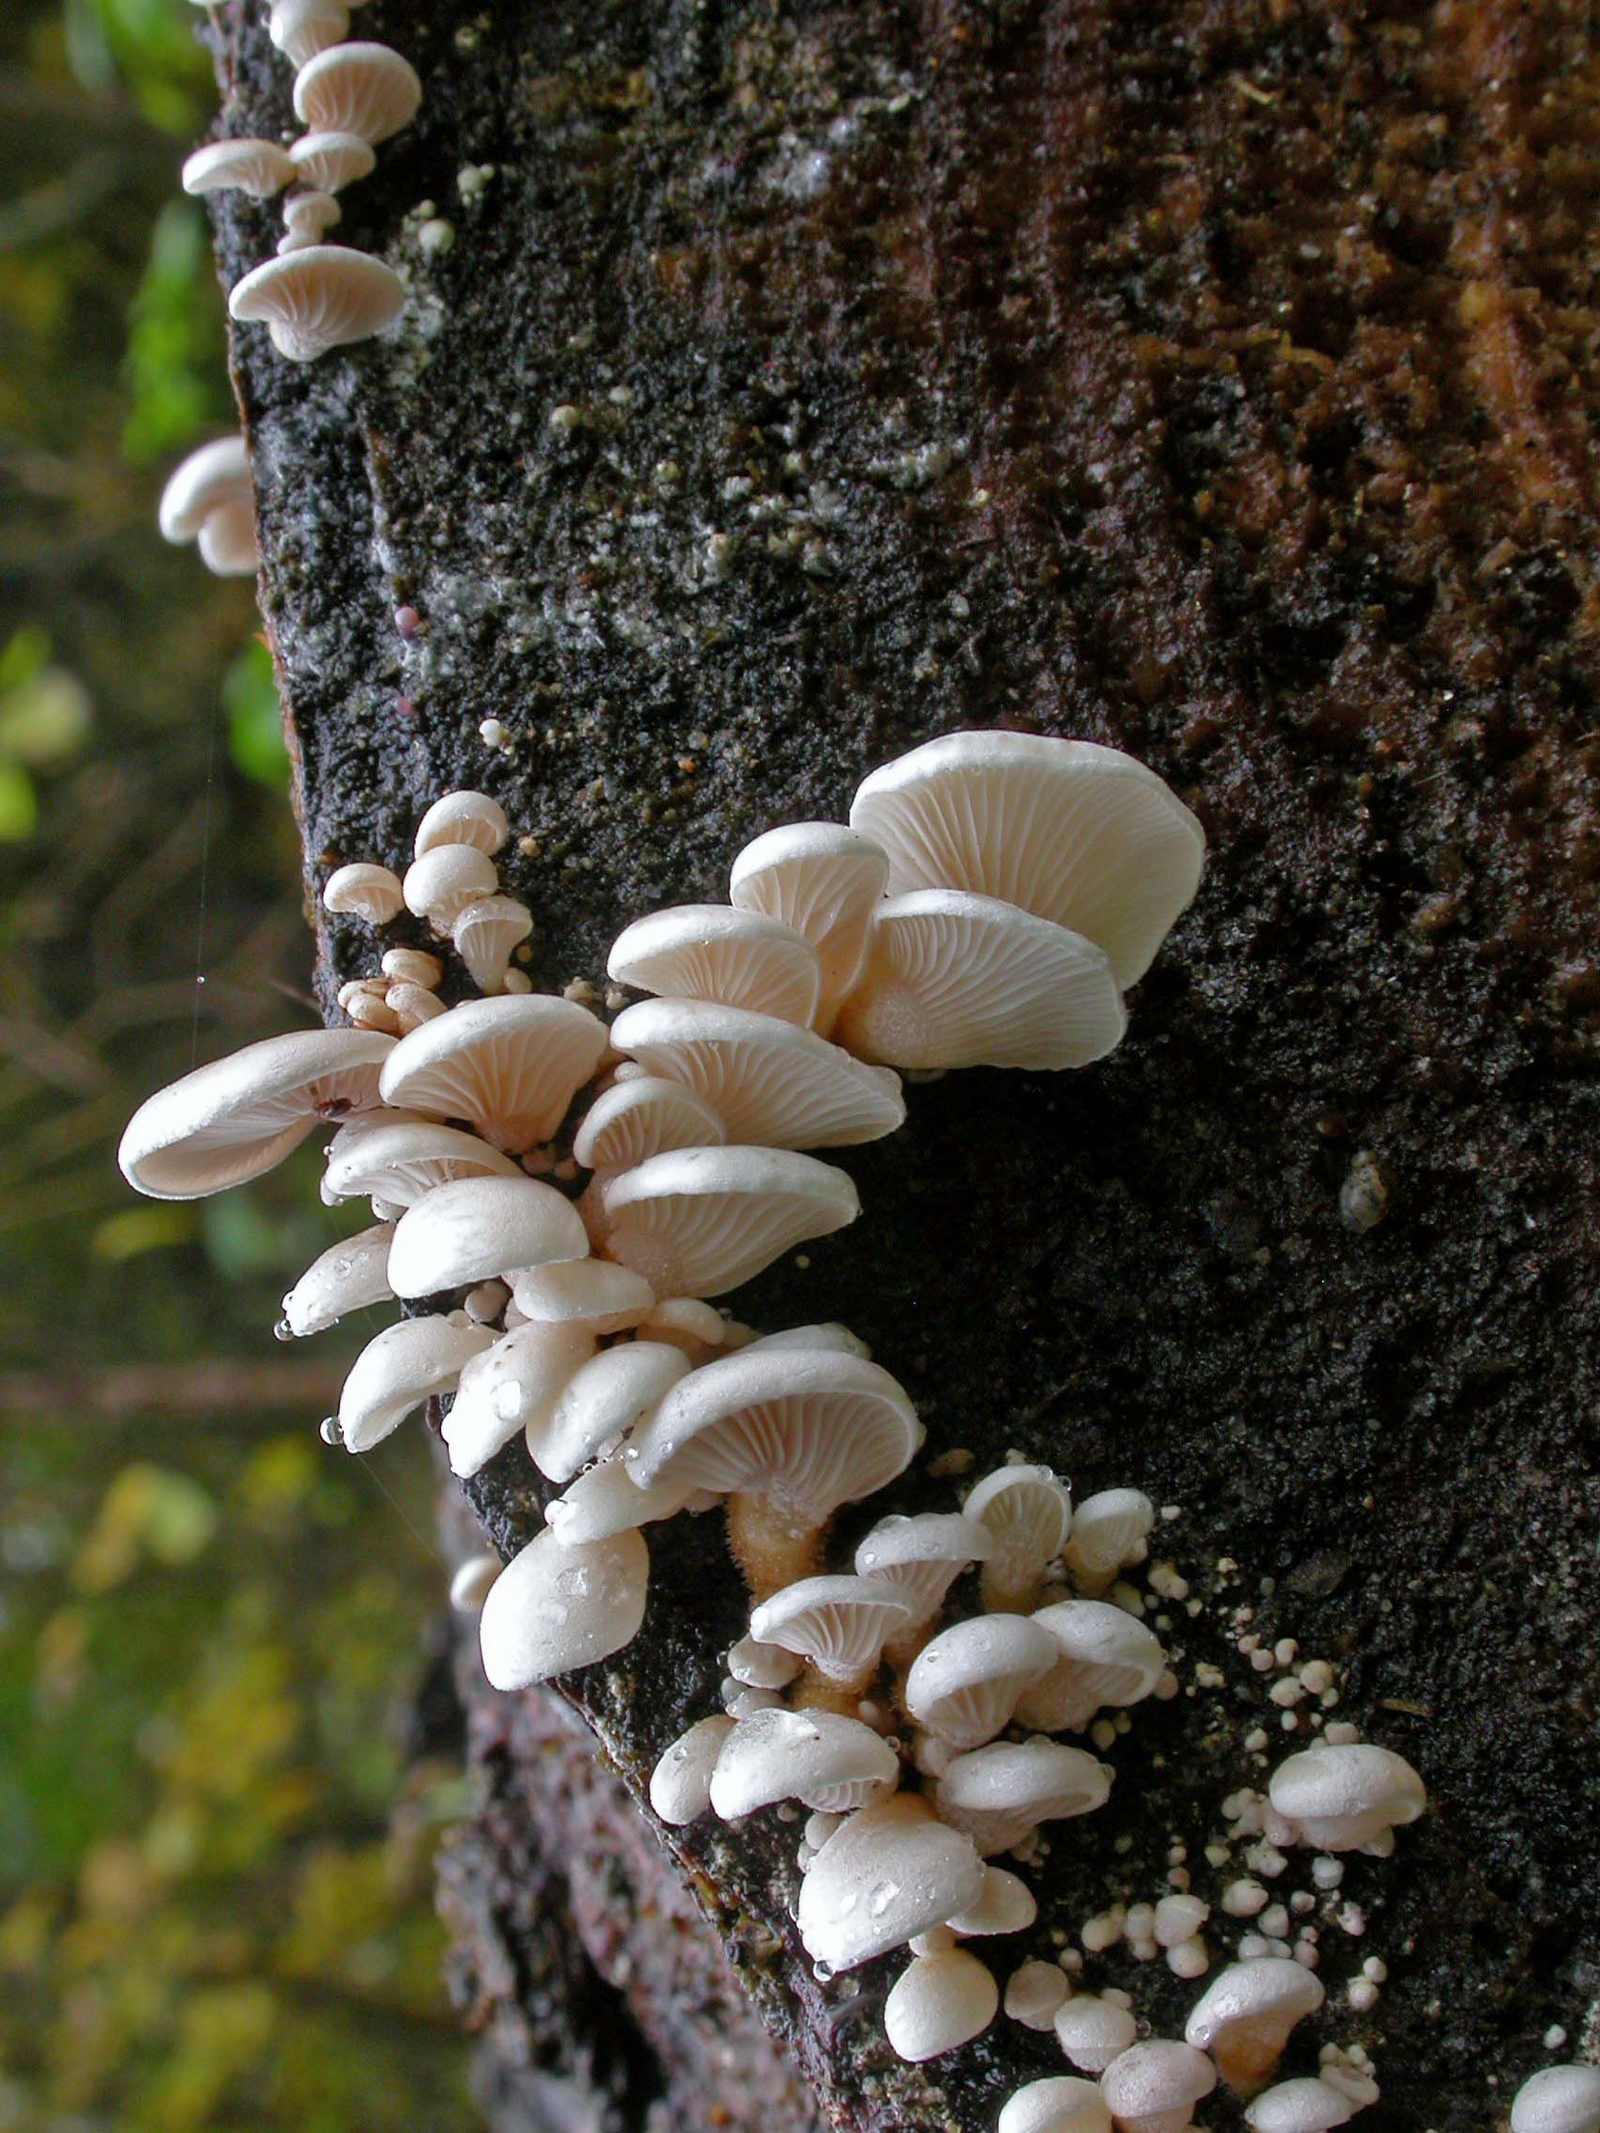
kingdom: Fungi
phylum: Basidiomycota
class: Agaricomycetes
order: Agaricales
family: Mycenaceae
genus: Panellus
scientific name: Panellus mitis
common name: mild epaulethat
